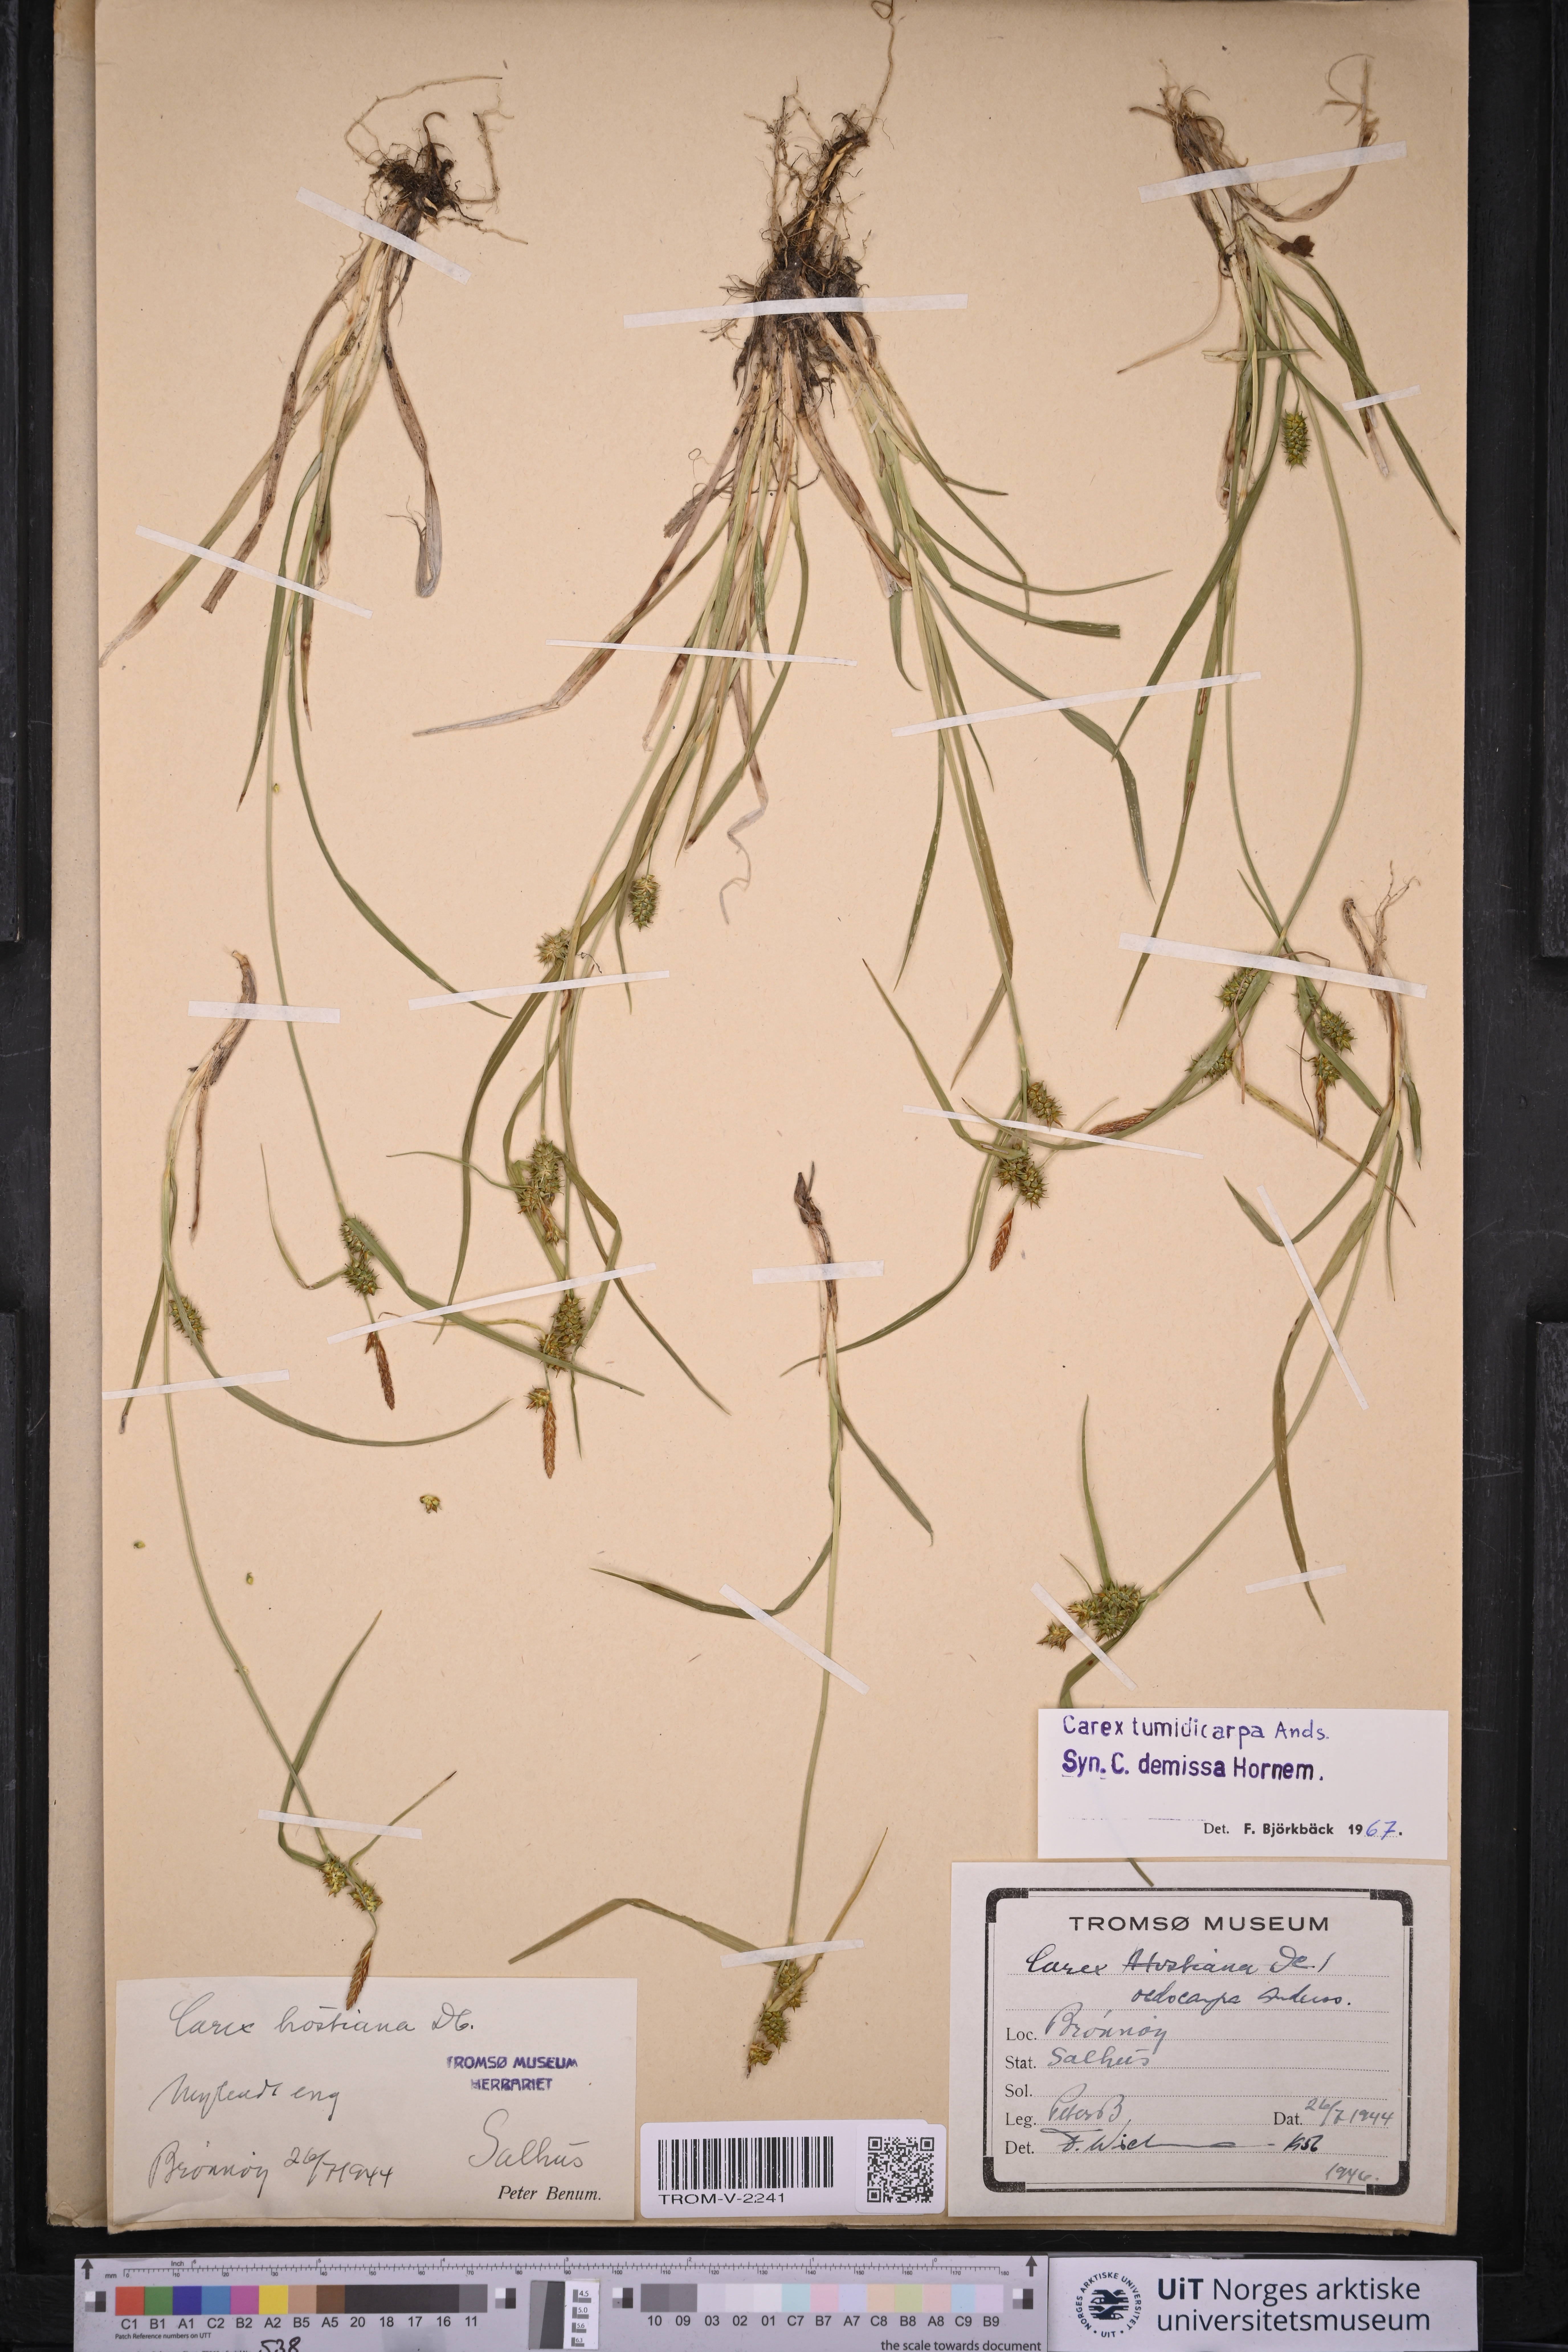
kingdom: Plantae
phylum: Tracheophyta
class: Liliopsida
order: Poales
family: Cyperaceae
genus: Carex
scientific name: Carex demissa
